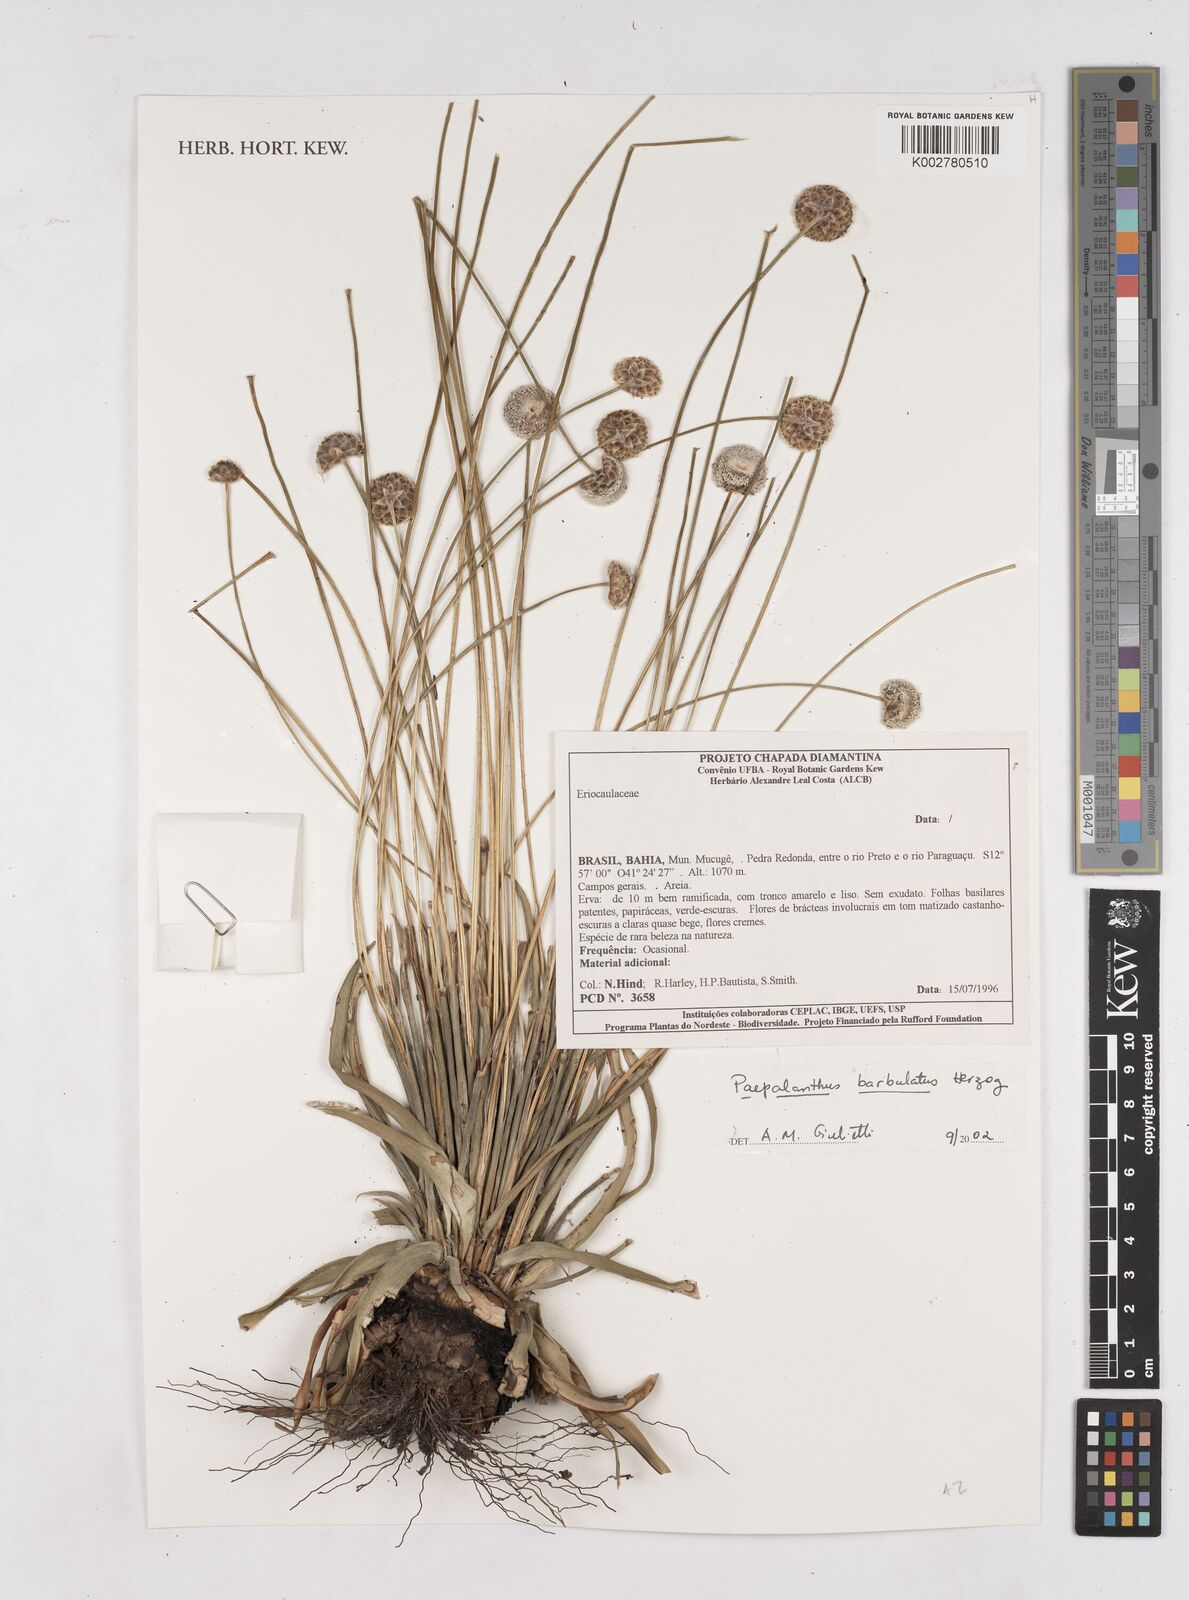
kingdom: Plantae
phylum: Tracheophyta
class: Liliopsida
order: Poales
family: Eriocaulaceae
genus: Paepalanthus
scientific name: Paepalanthus barbulatus
